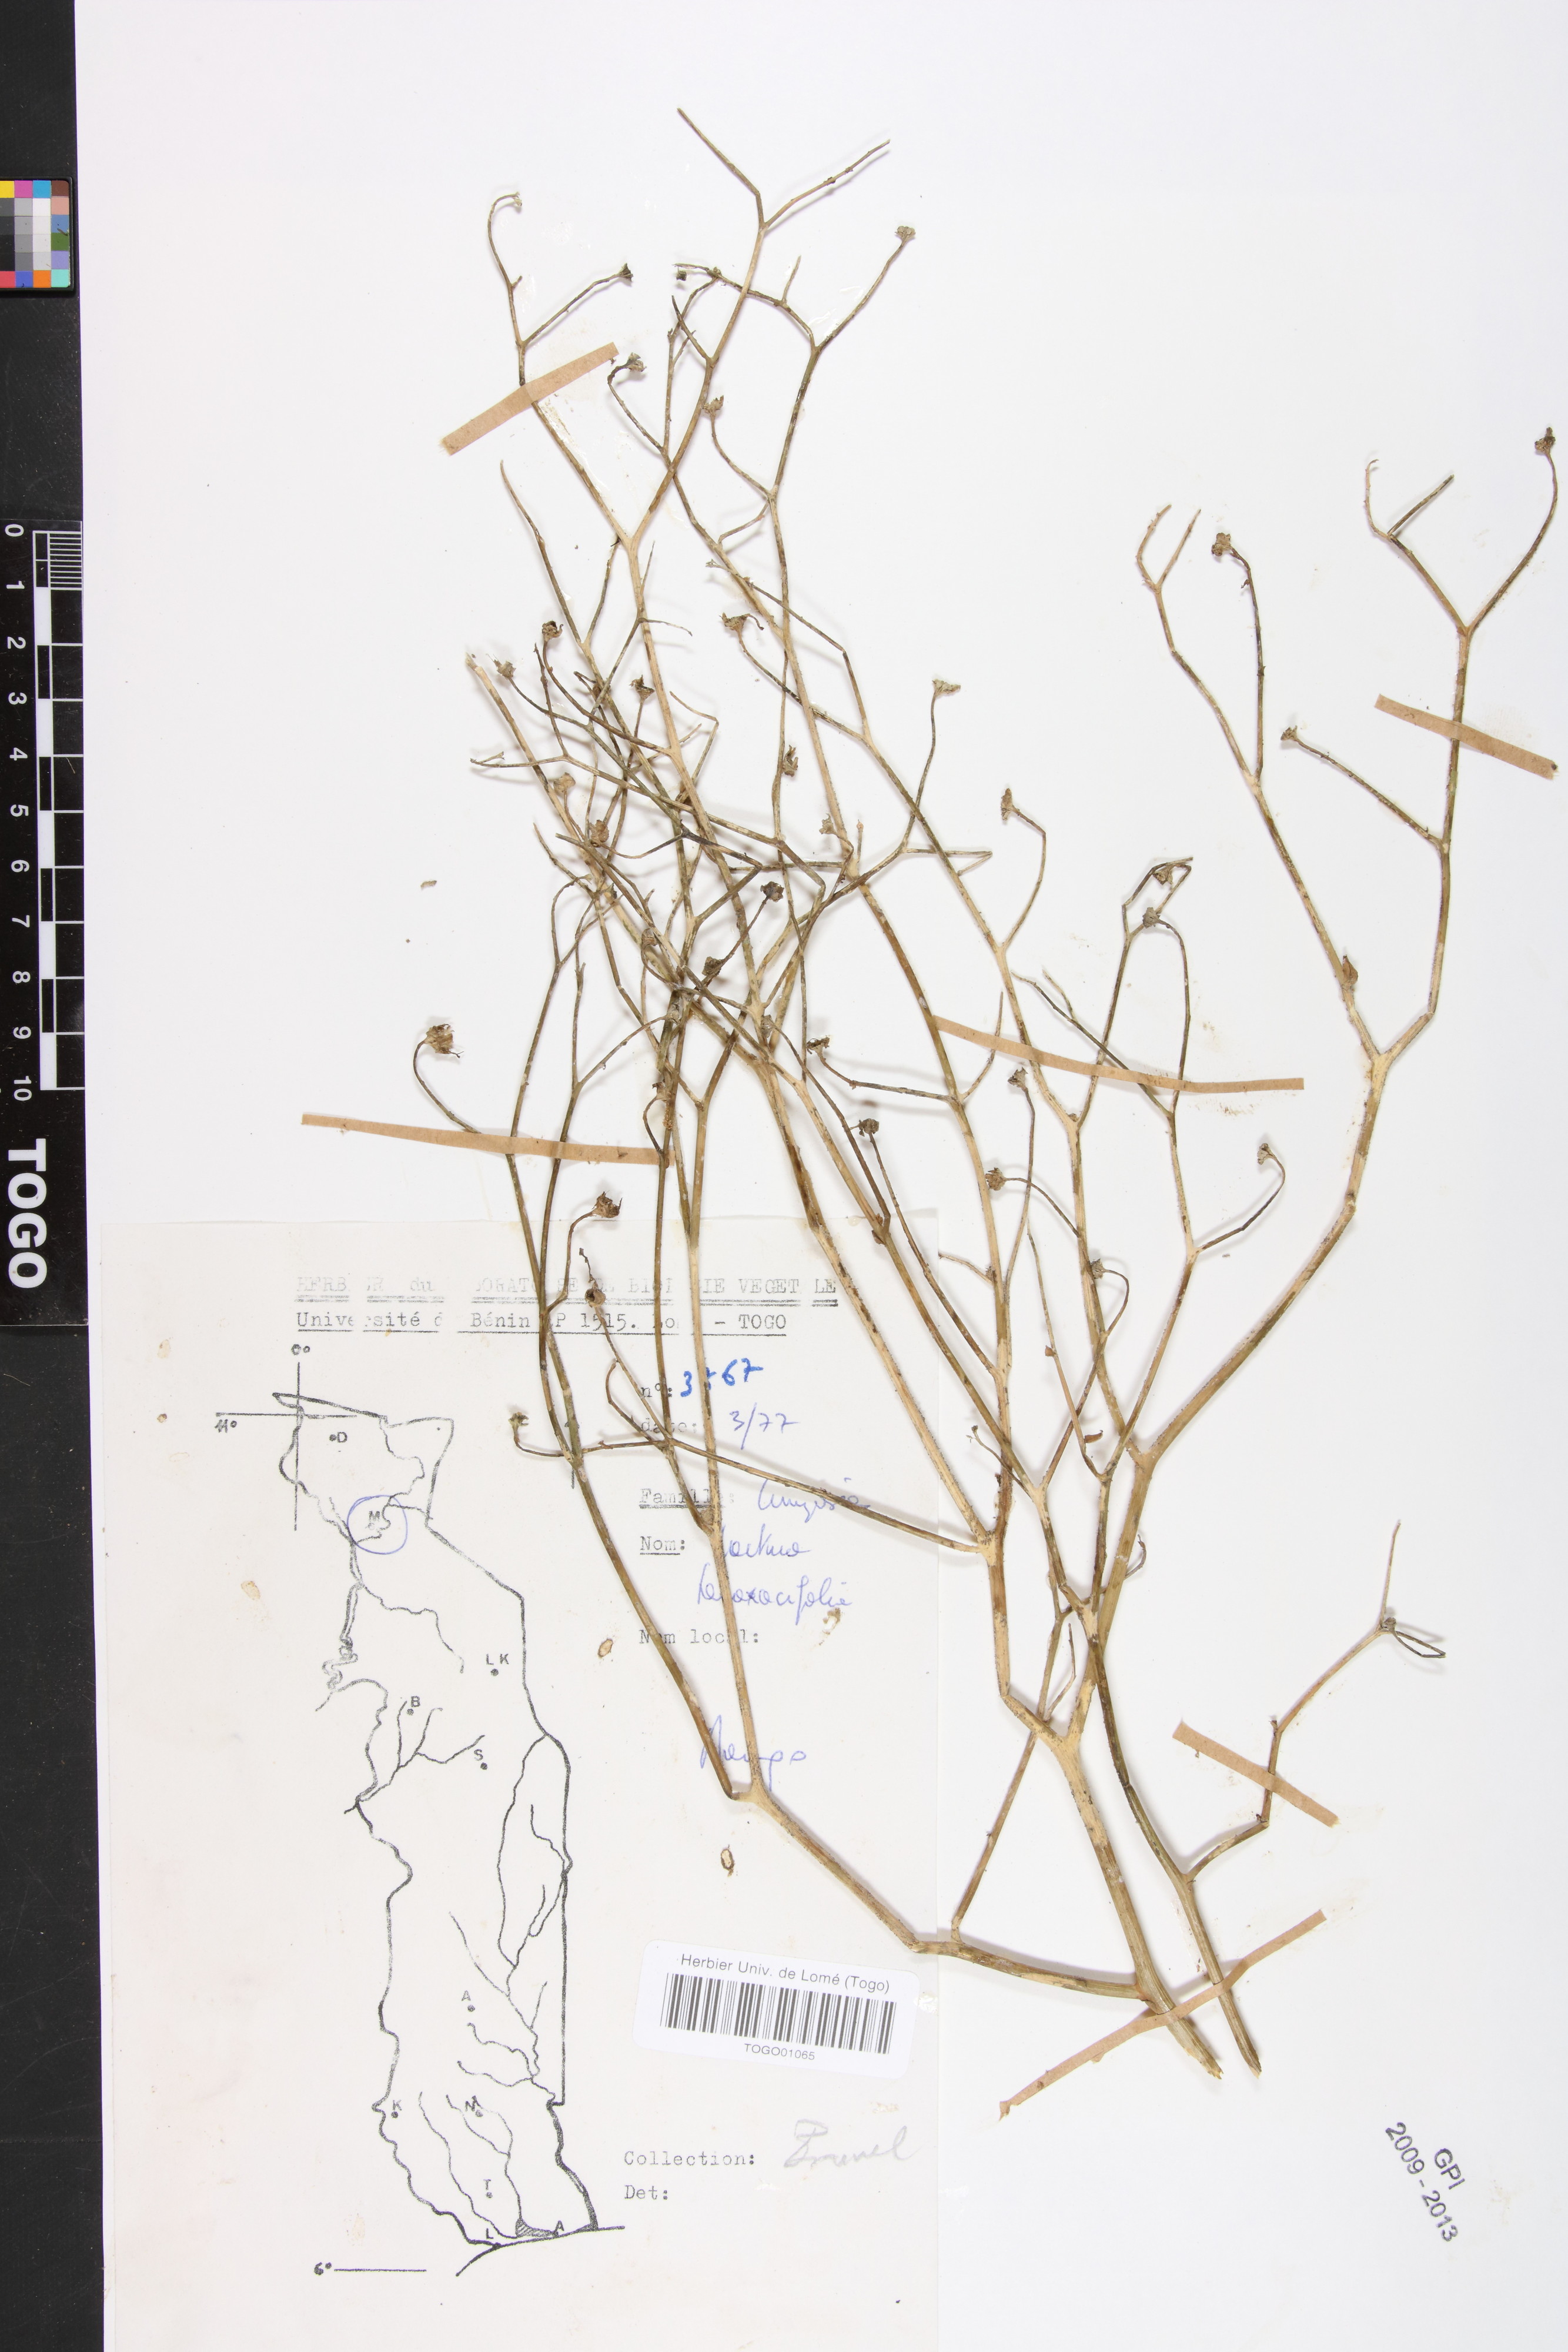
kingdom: Plantae
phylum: Tracheophyta
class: Magnoliopsida
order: Asterales
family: Asteraceae
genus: Launaea
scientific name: Launaea taraxacifolia
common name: African-lettuce
